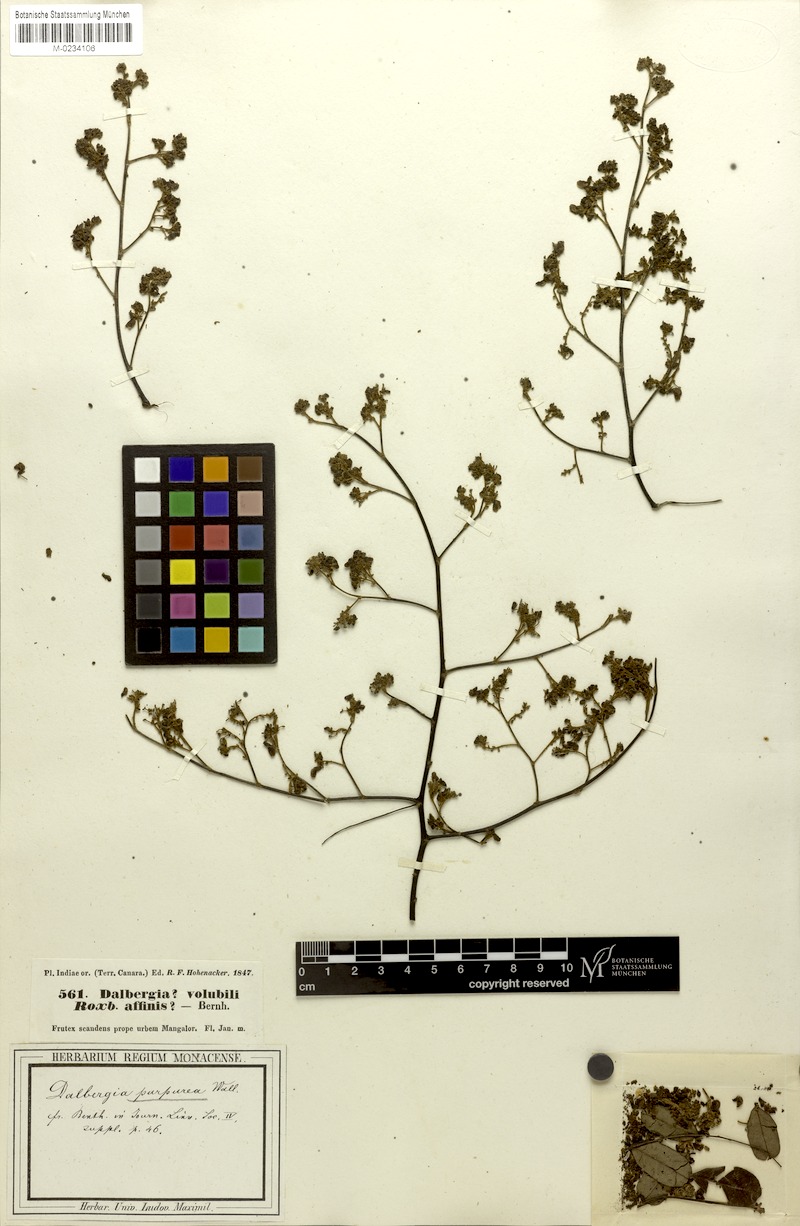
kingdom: Plantae
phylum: Tracheophyta
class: Magnoliopsida
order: Fabales
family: Fabaceae
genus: Dalbergia
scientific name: Dalbergia volubilis
